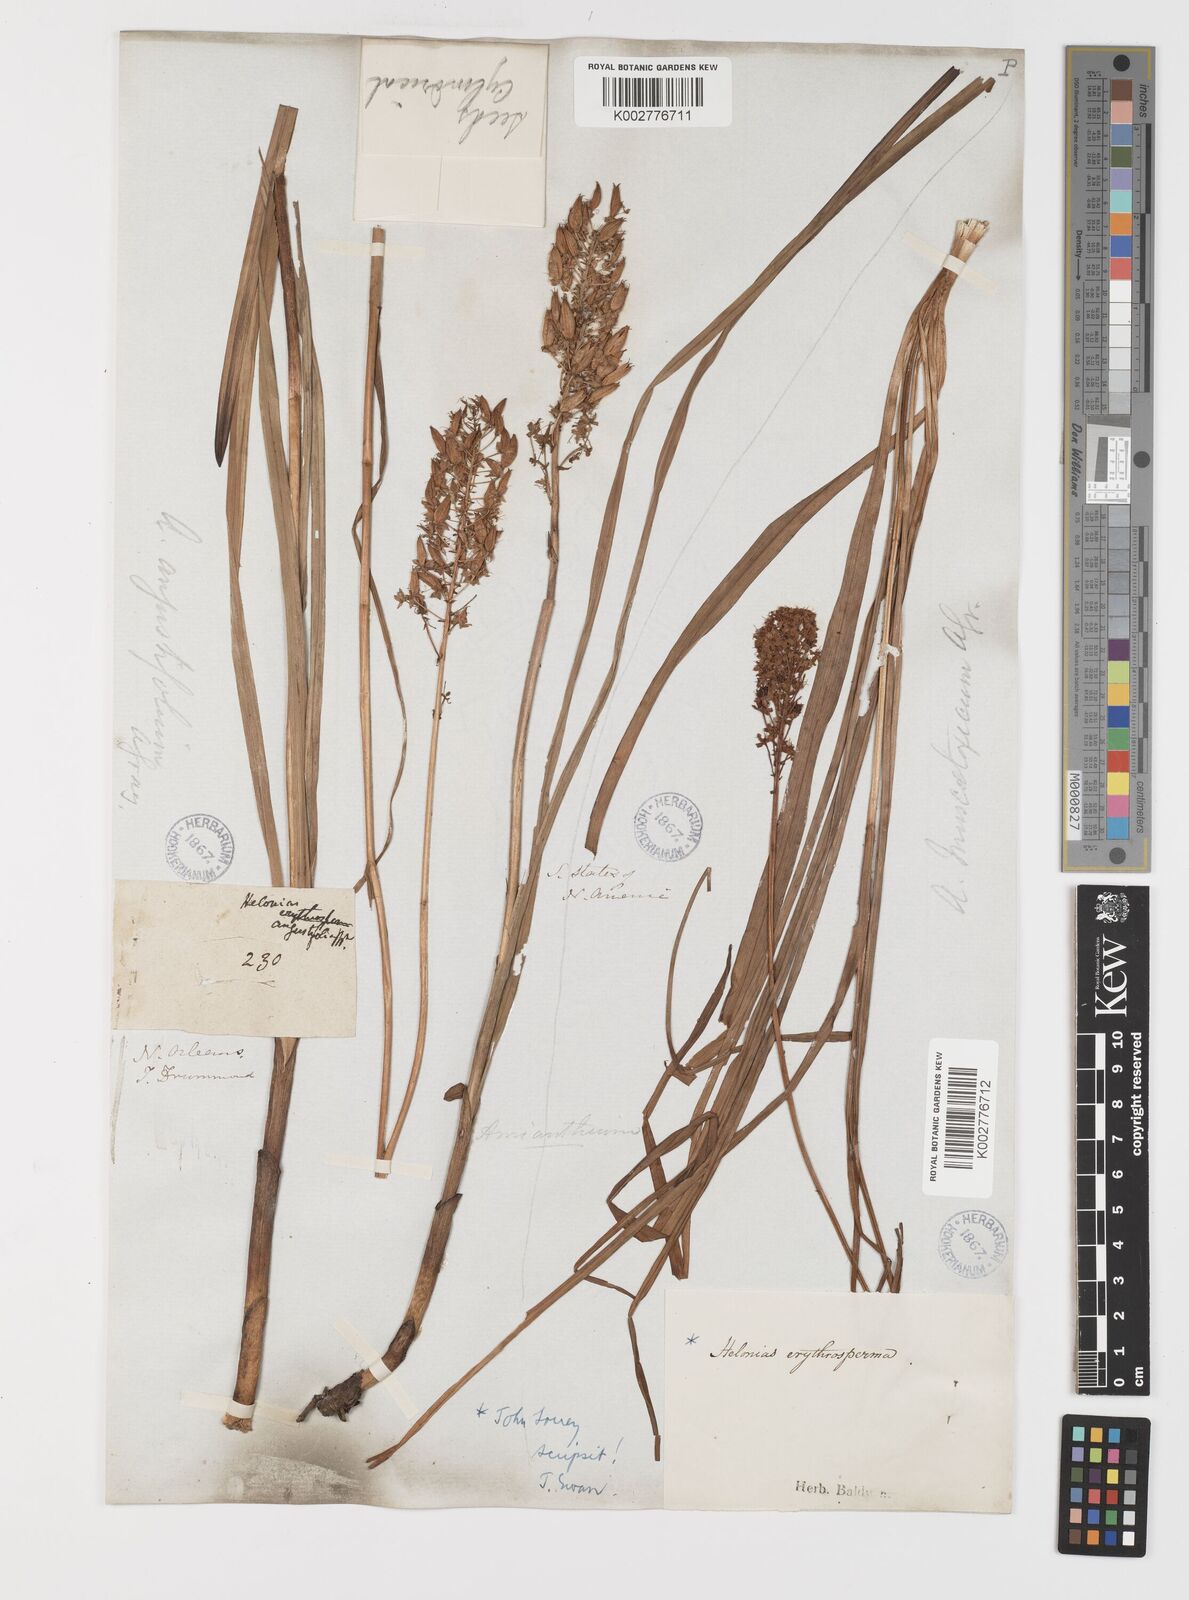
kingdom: Plantae
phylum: Tracheophyta
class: Liliopsida
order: Liliales
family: Melanthiaceae
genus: Stenanthium
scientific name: Stenanthium densum
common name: Crow-poison
